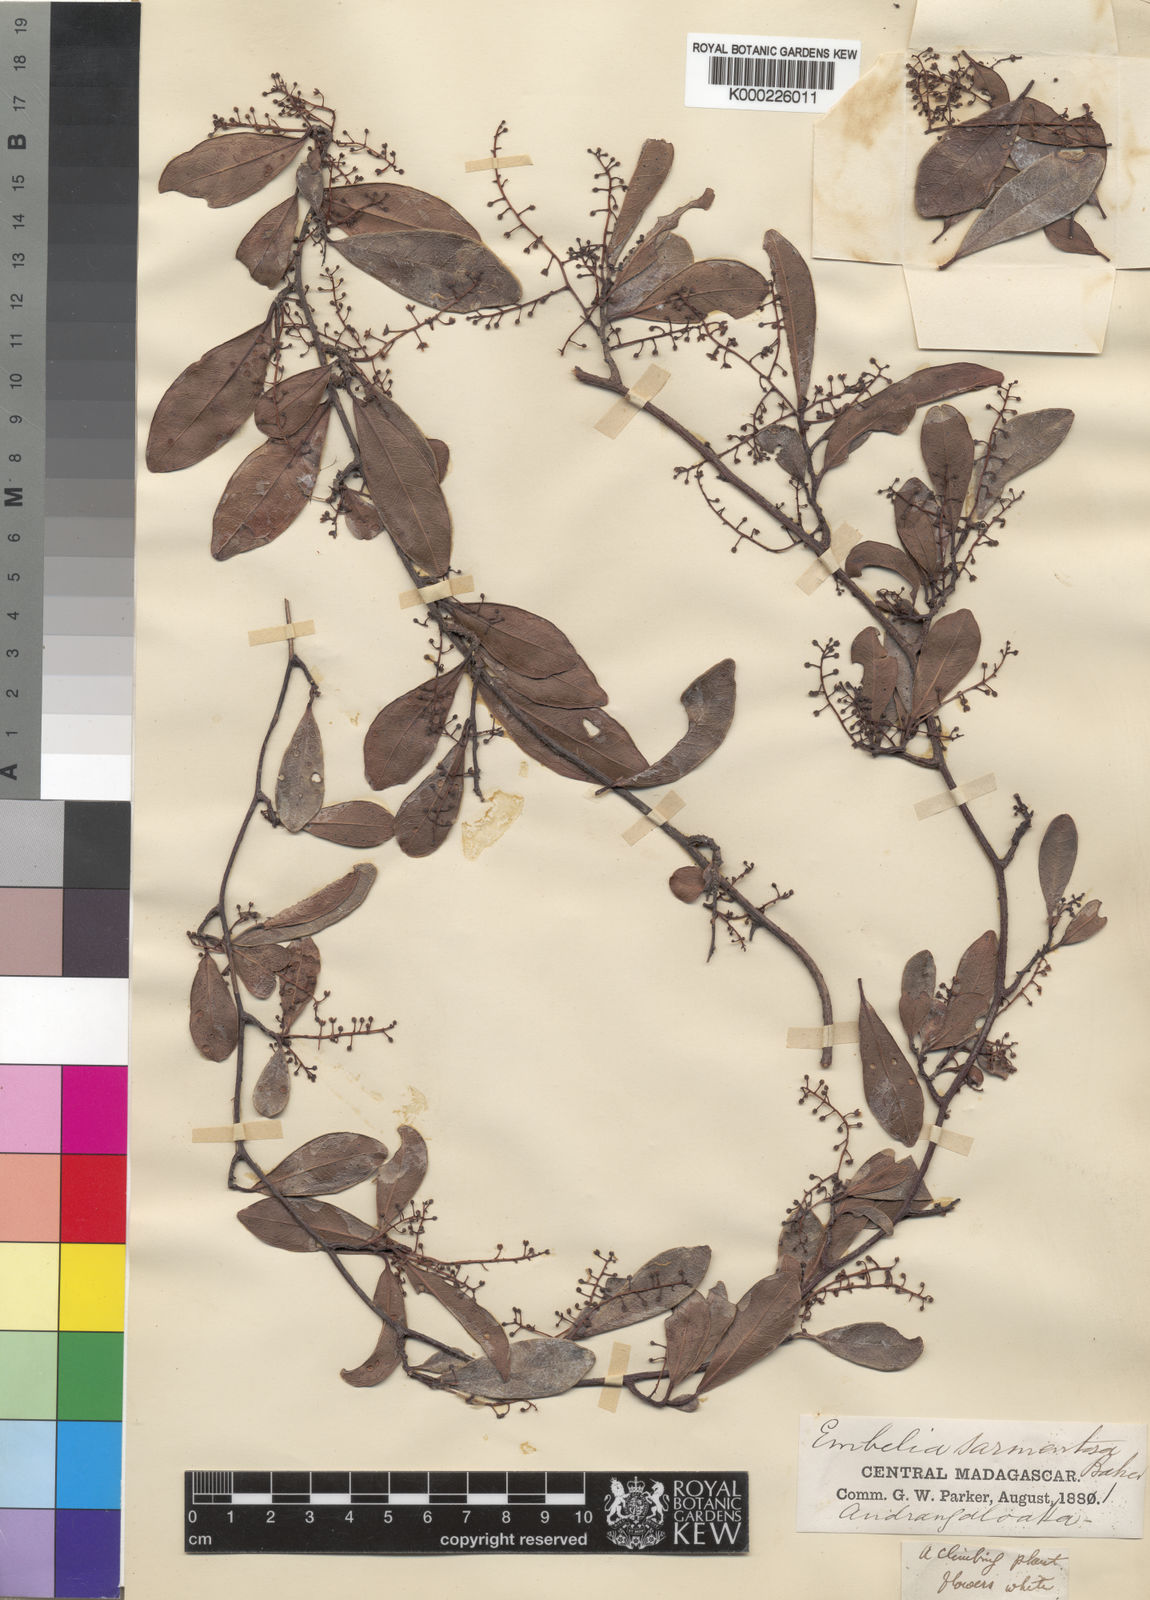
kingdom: Plantae
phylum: Tracheophyta
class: Magnoliopsida
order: Ericales
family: Primulaceae
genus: Embelia
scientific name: Embelia pyrifolia
